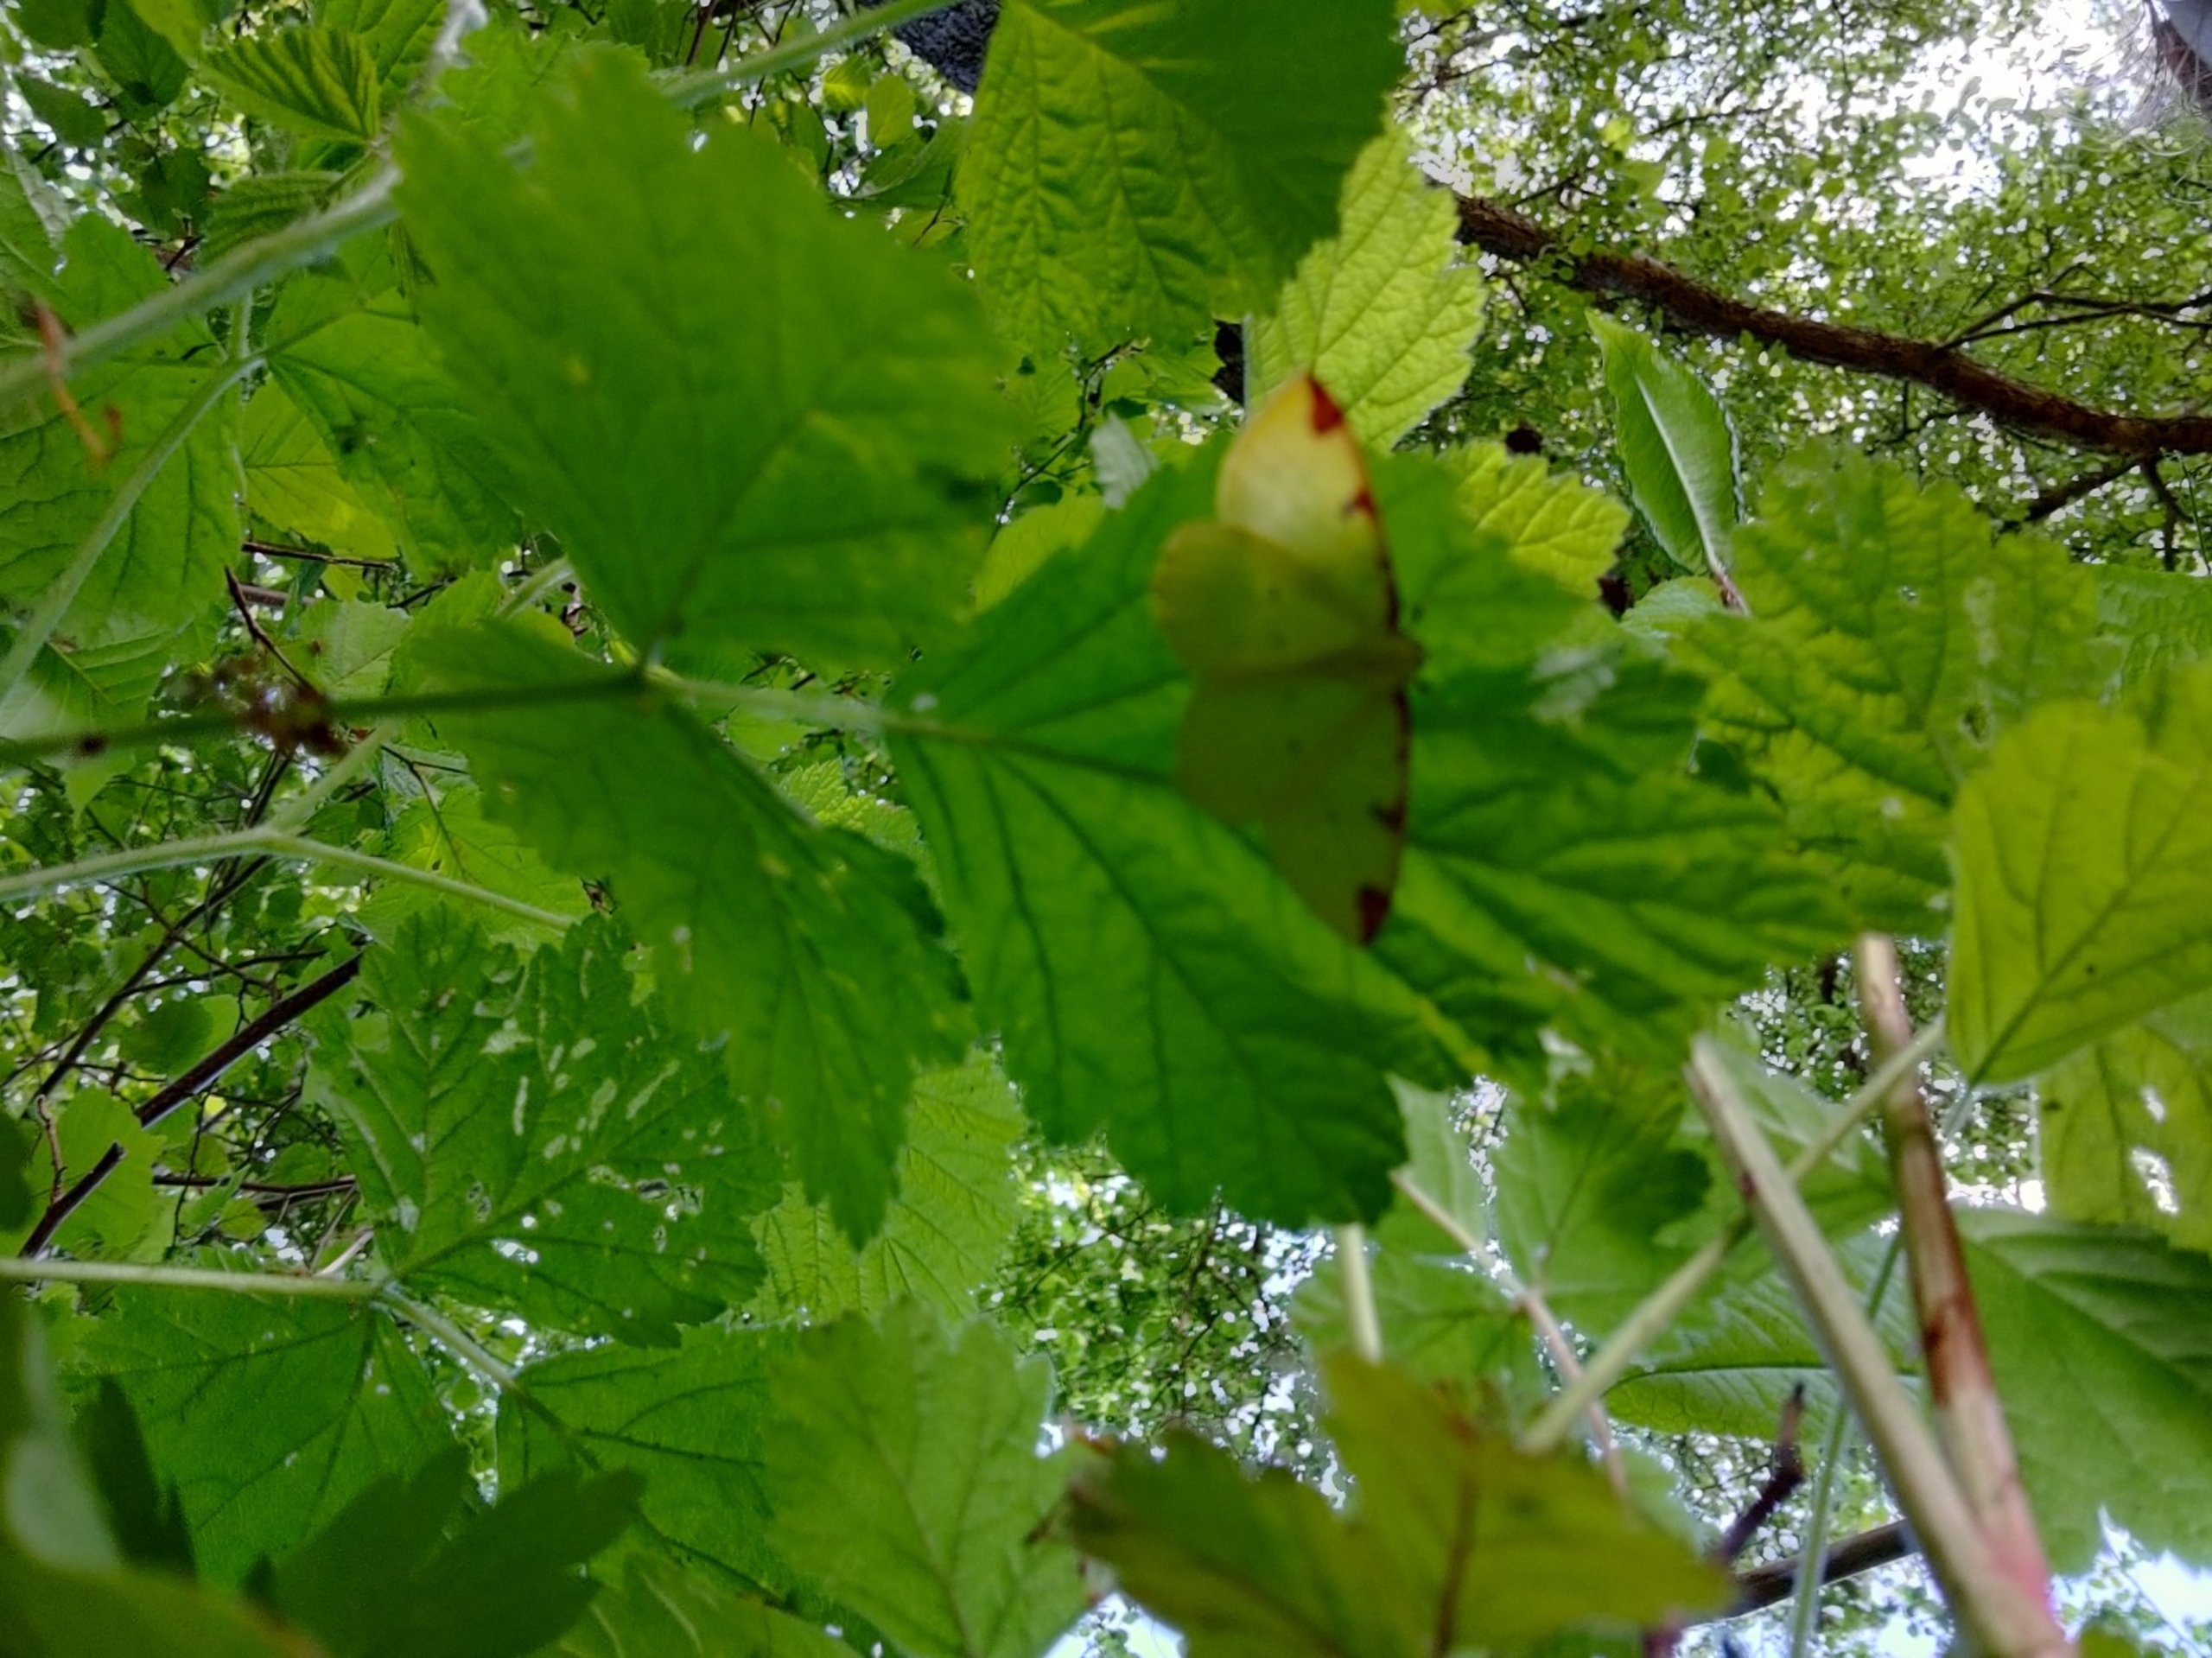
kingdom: Animalia
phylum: Arthropoda
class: Insecta
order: Lepidoptera
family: Geometridae
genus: Opisthograptis
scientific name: Opisthograptis luteolata
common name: Citronmåler
